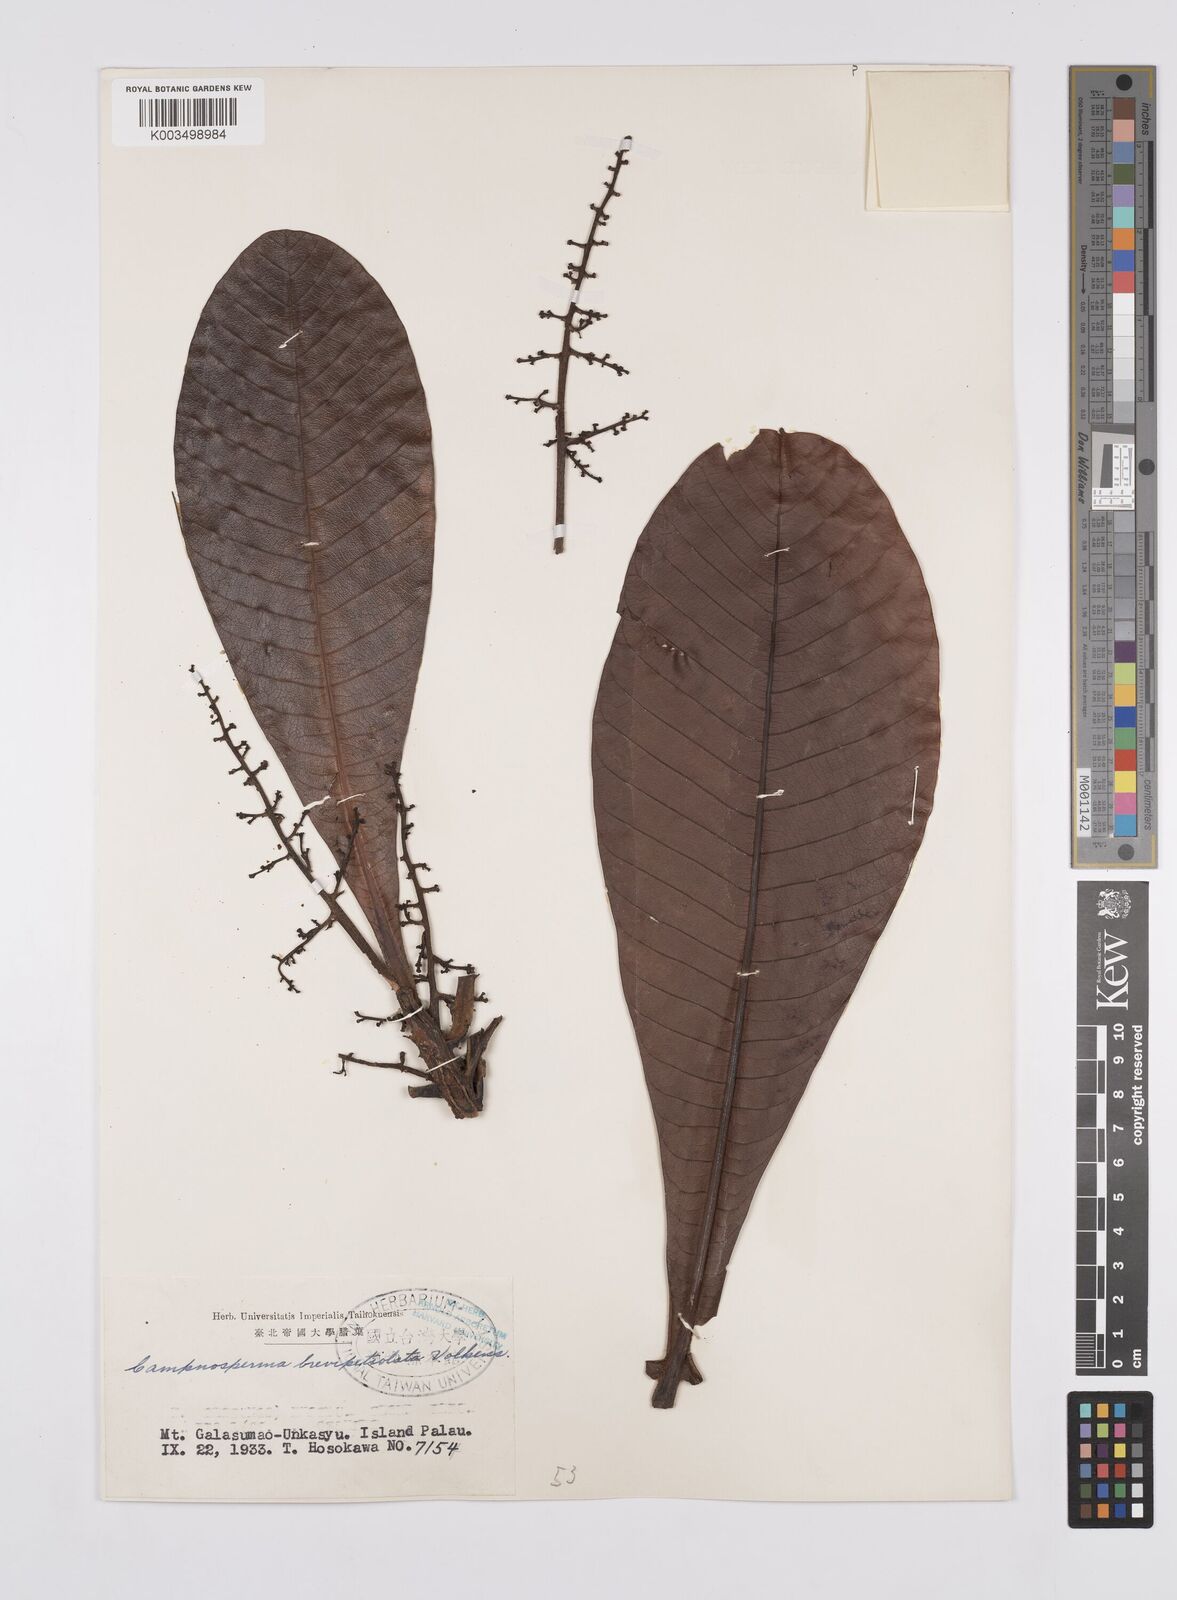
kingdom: Plantae
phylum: Tracheophyta
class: Magnoliopsida
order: Sapindales
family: Anacardiaceae
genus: Campnosperma
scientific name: Campnosperma brevipetiolatum
